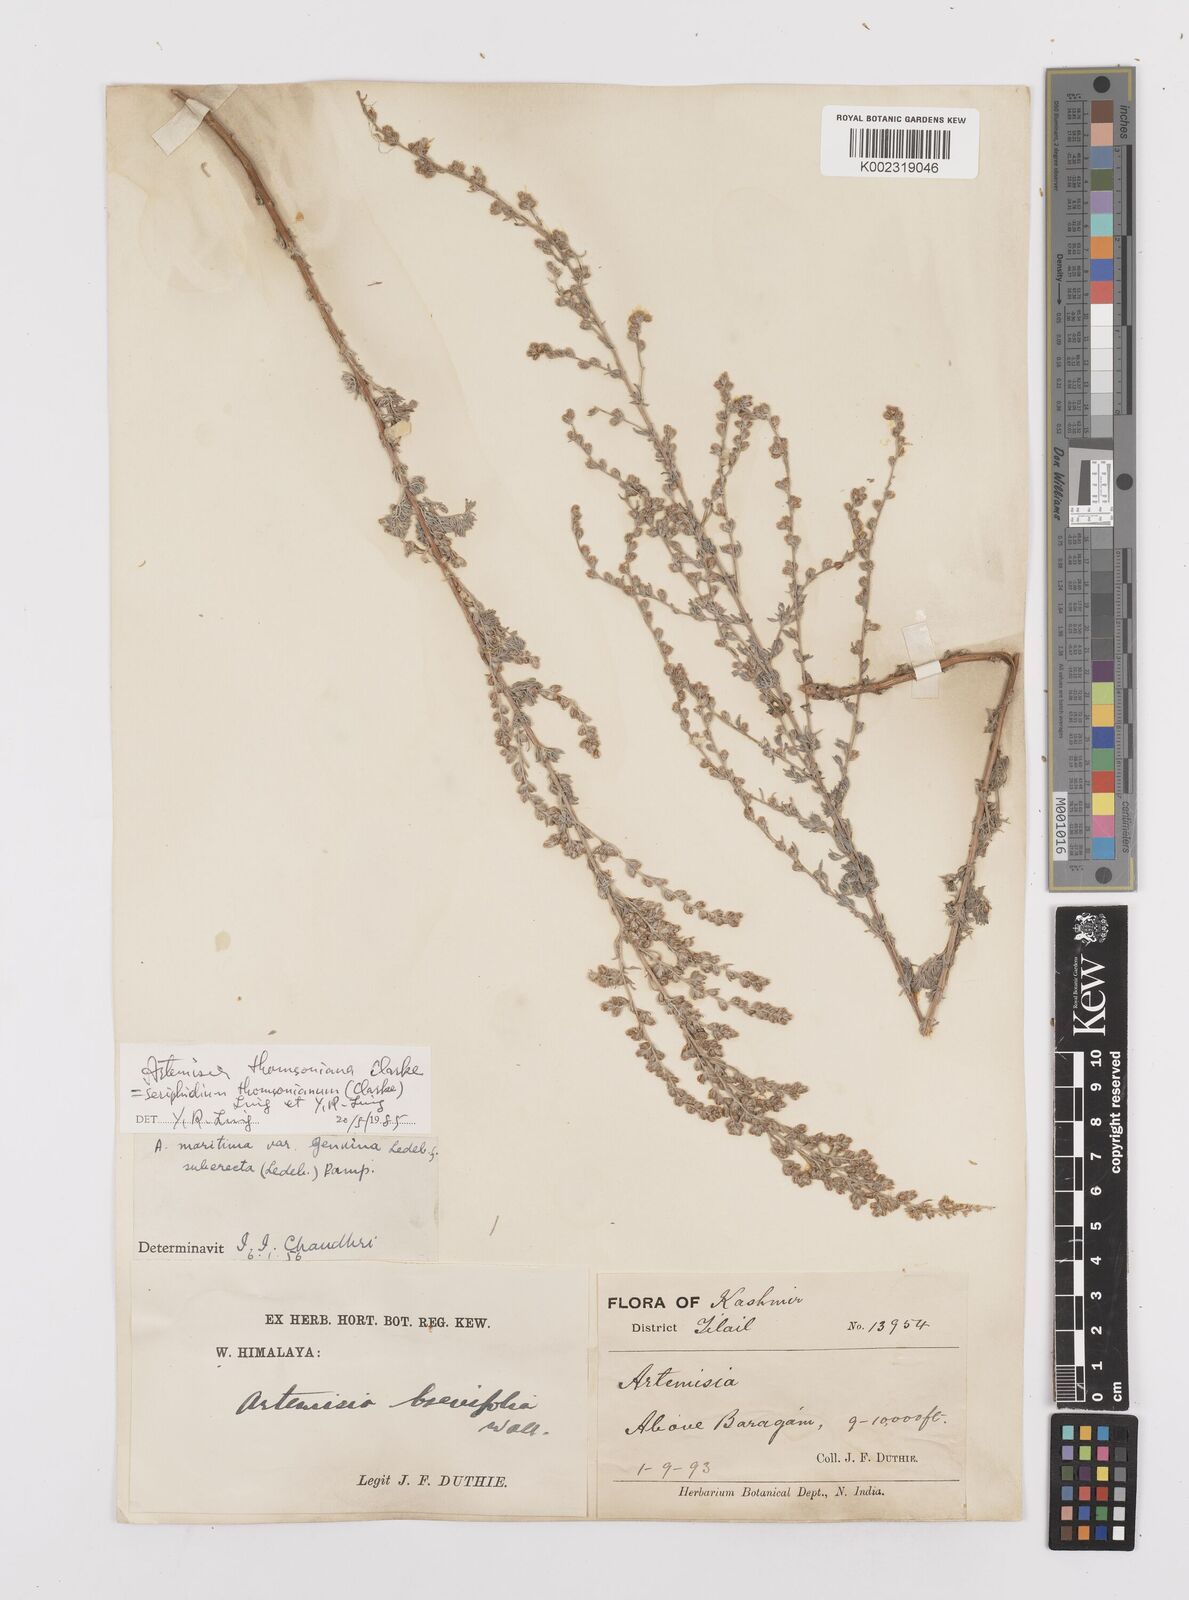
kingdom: Plantae
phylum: Tracheophyta
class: Magnoliopsida
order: Asterales
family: Asteraceae
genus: Artemisia
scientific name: Artemisia brevifolia
